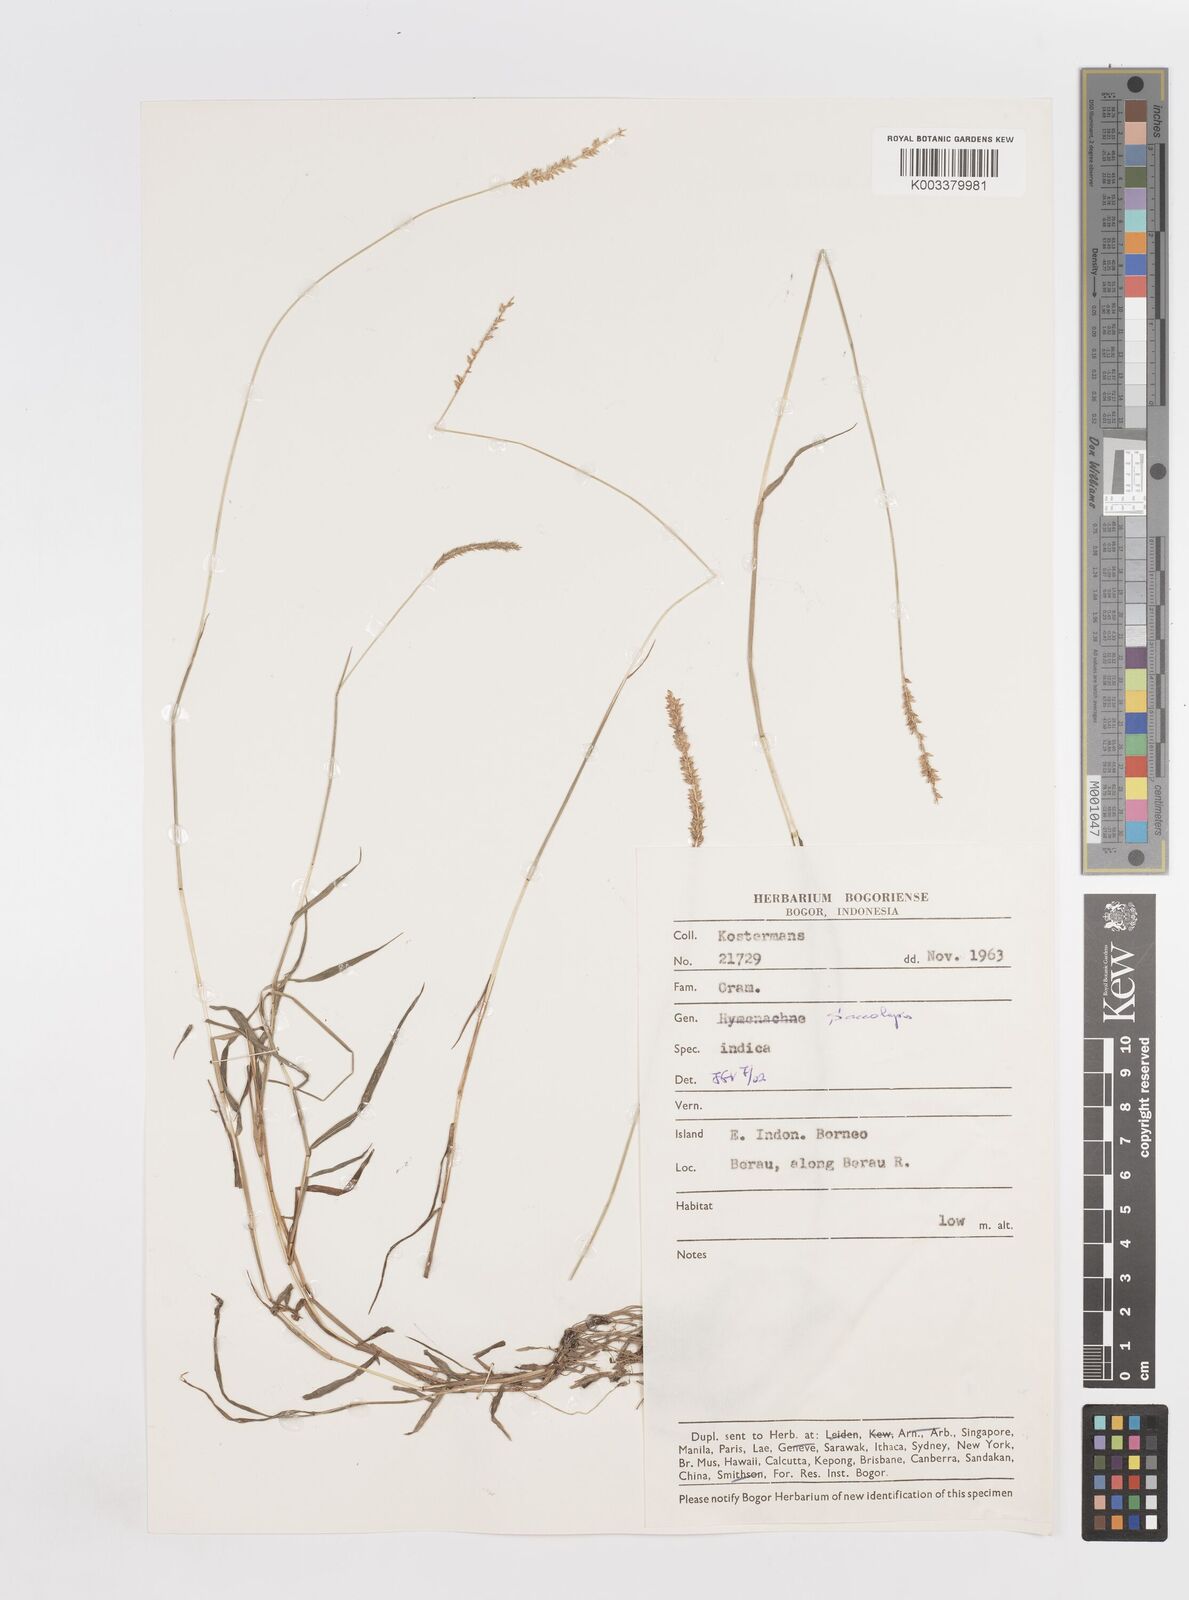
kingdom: Plantae
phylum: Tracheophyta
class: Liliopsida
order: Poales
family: Poaceae
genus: Sacciolepis
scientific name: Sacciolepis indica
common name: Glenwoodgrass
